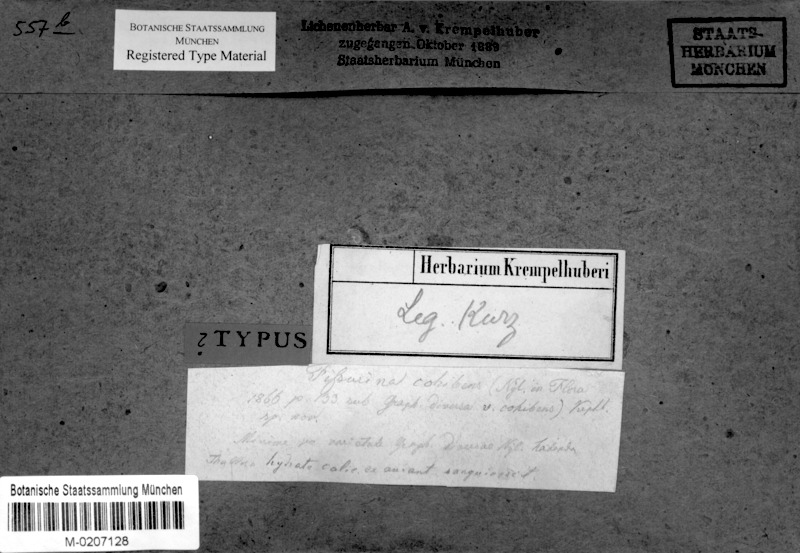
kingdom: Fungi
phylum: Ascomycota
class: Lecanoromycetes
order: Ostropales
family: Graphidaceae
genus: Phaeographis
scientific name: Phaeographis cohibens
